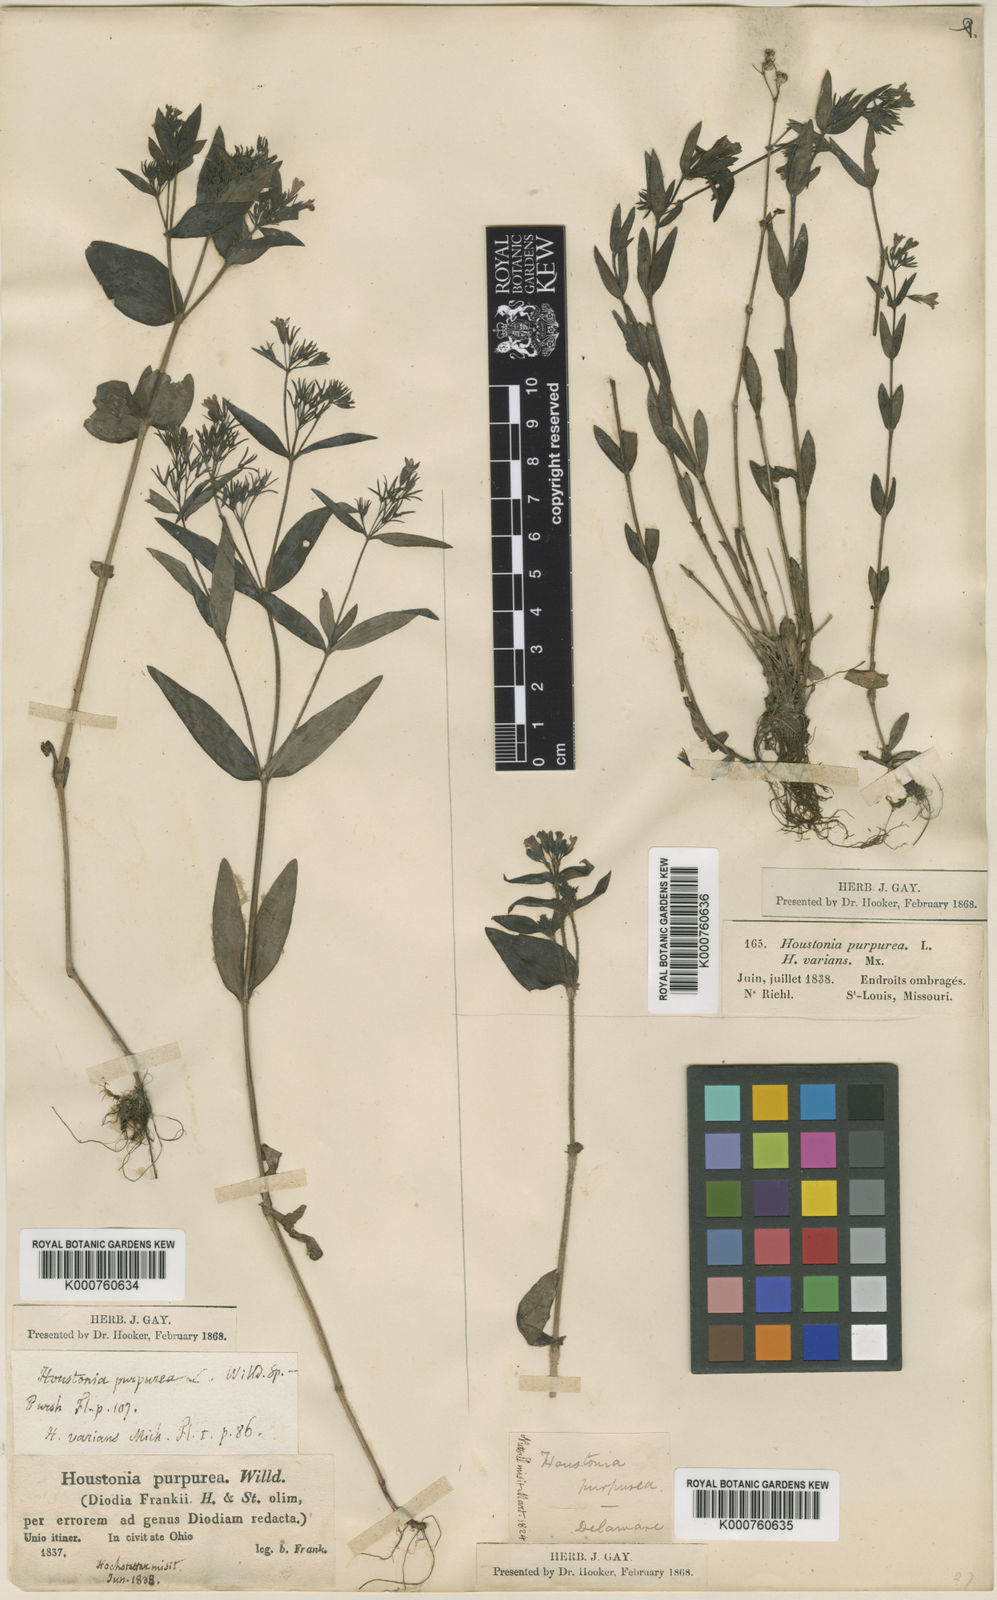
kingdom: Plantae
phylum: Tracheophyta
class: Magnoliopsida
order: Gentianales
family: Rubiaceae
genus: Houstonia
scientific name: Houstonia purpurea
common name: Summer bluet
